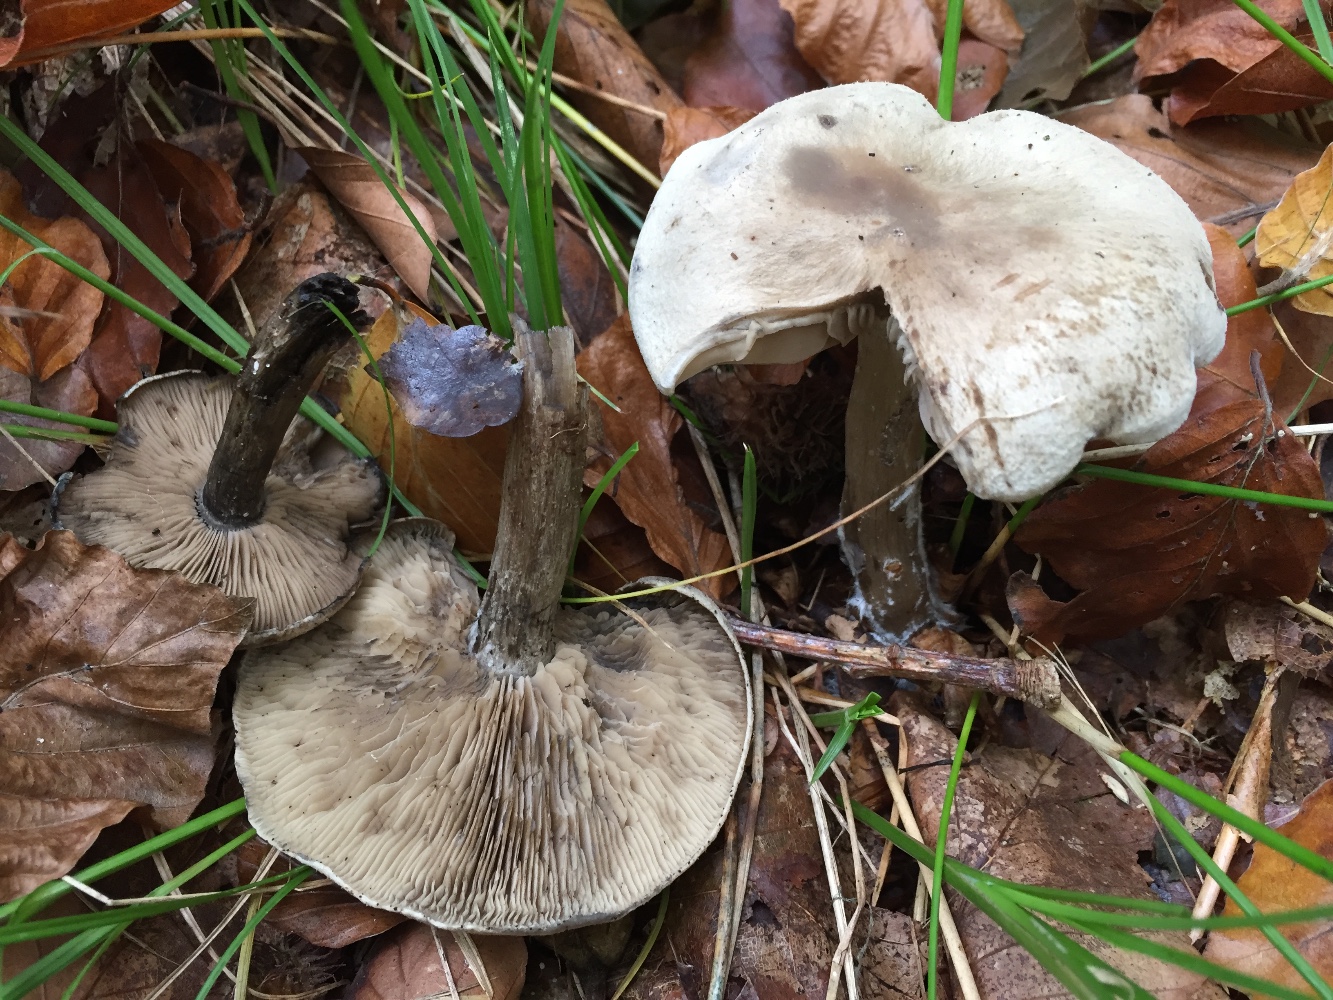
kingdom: Fungi
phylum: Basidiomycota
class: Agaricomycetes
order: Agaricales
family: Lyophyllaceae
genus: Calocybe
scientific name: Calocybe gangraenosa
